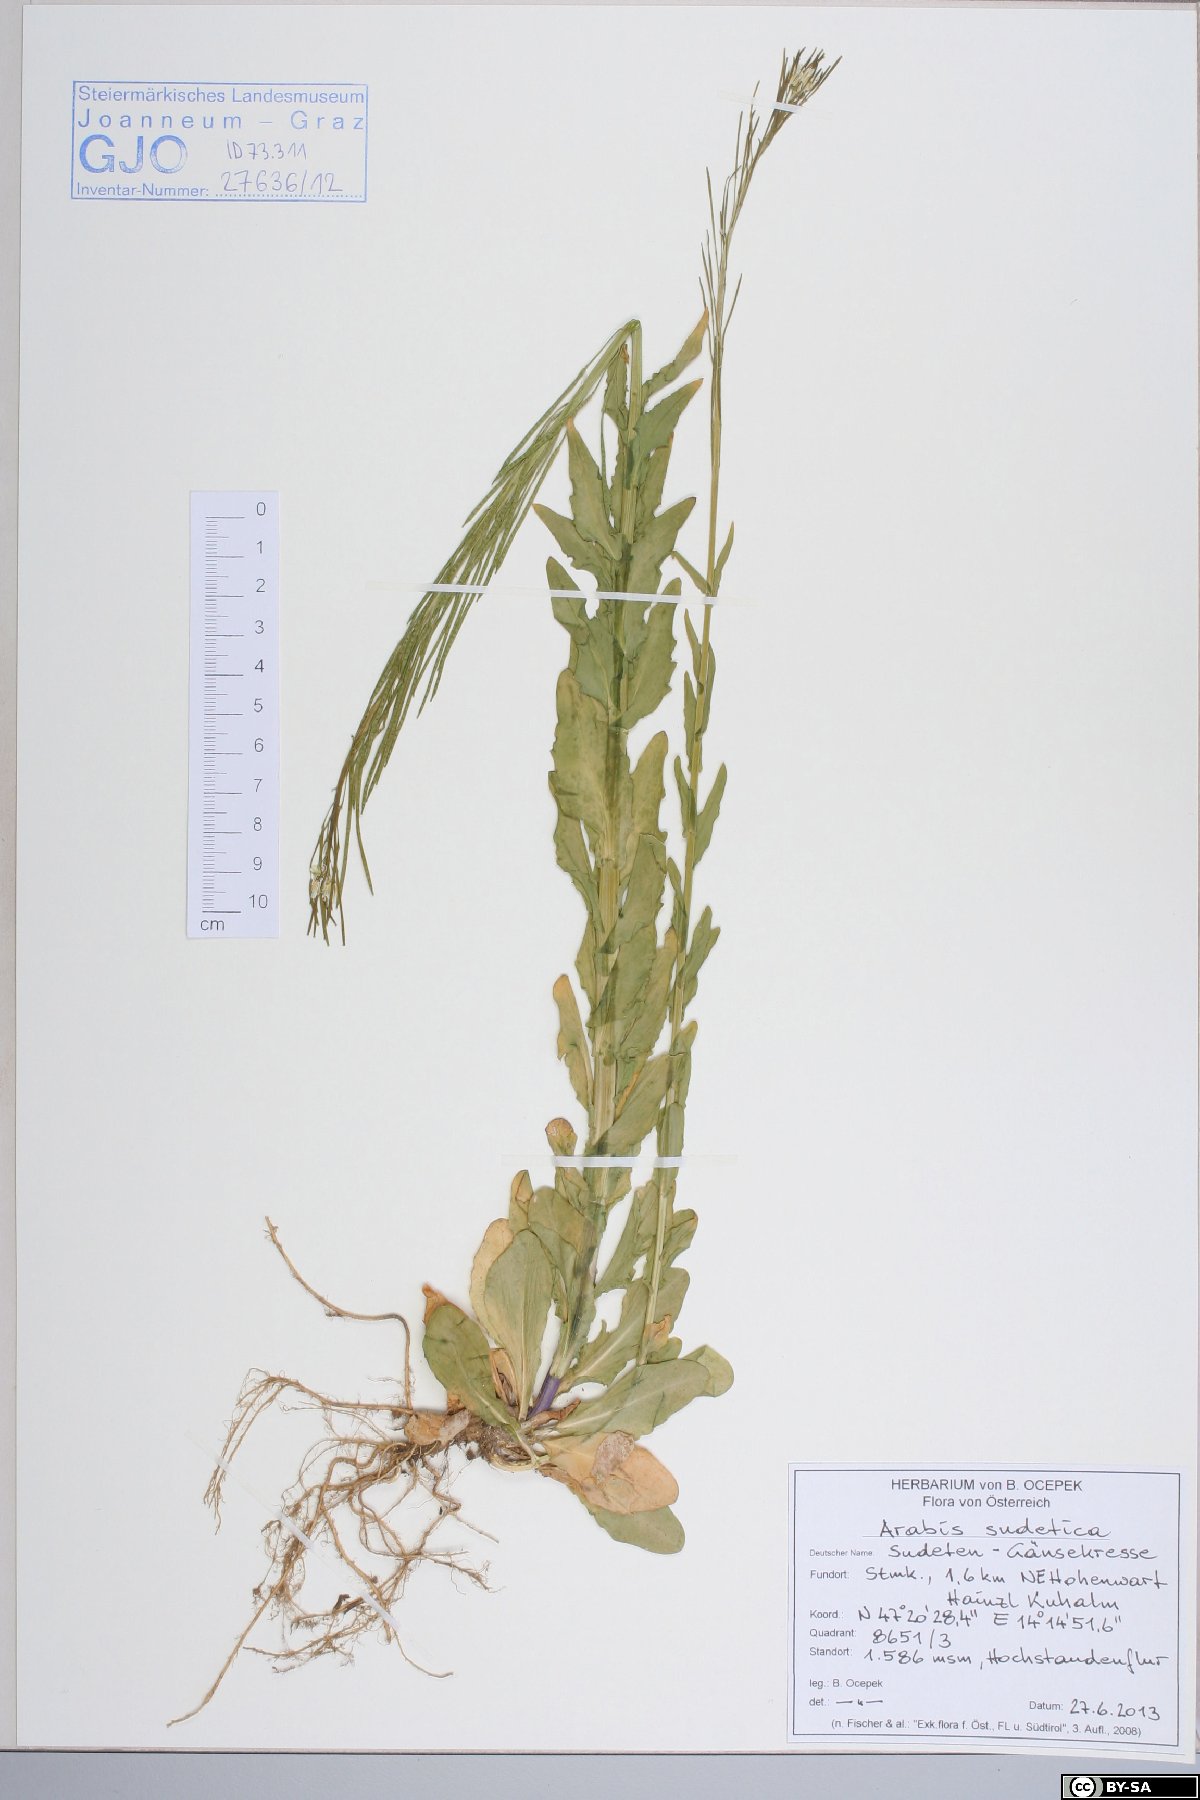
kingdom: Plantae
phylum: Tracheophyta
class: Magnoliopsida
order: Brassicales
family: Brassicaceae
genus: Arabis
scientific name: Arabis sudetica
